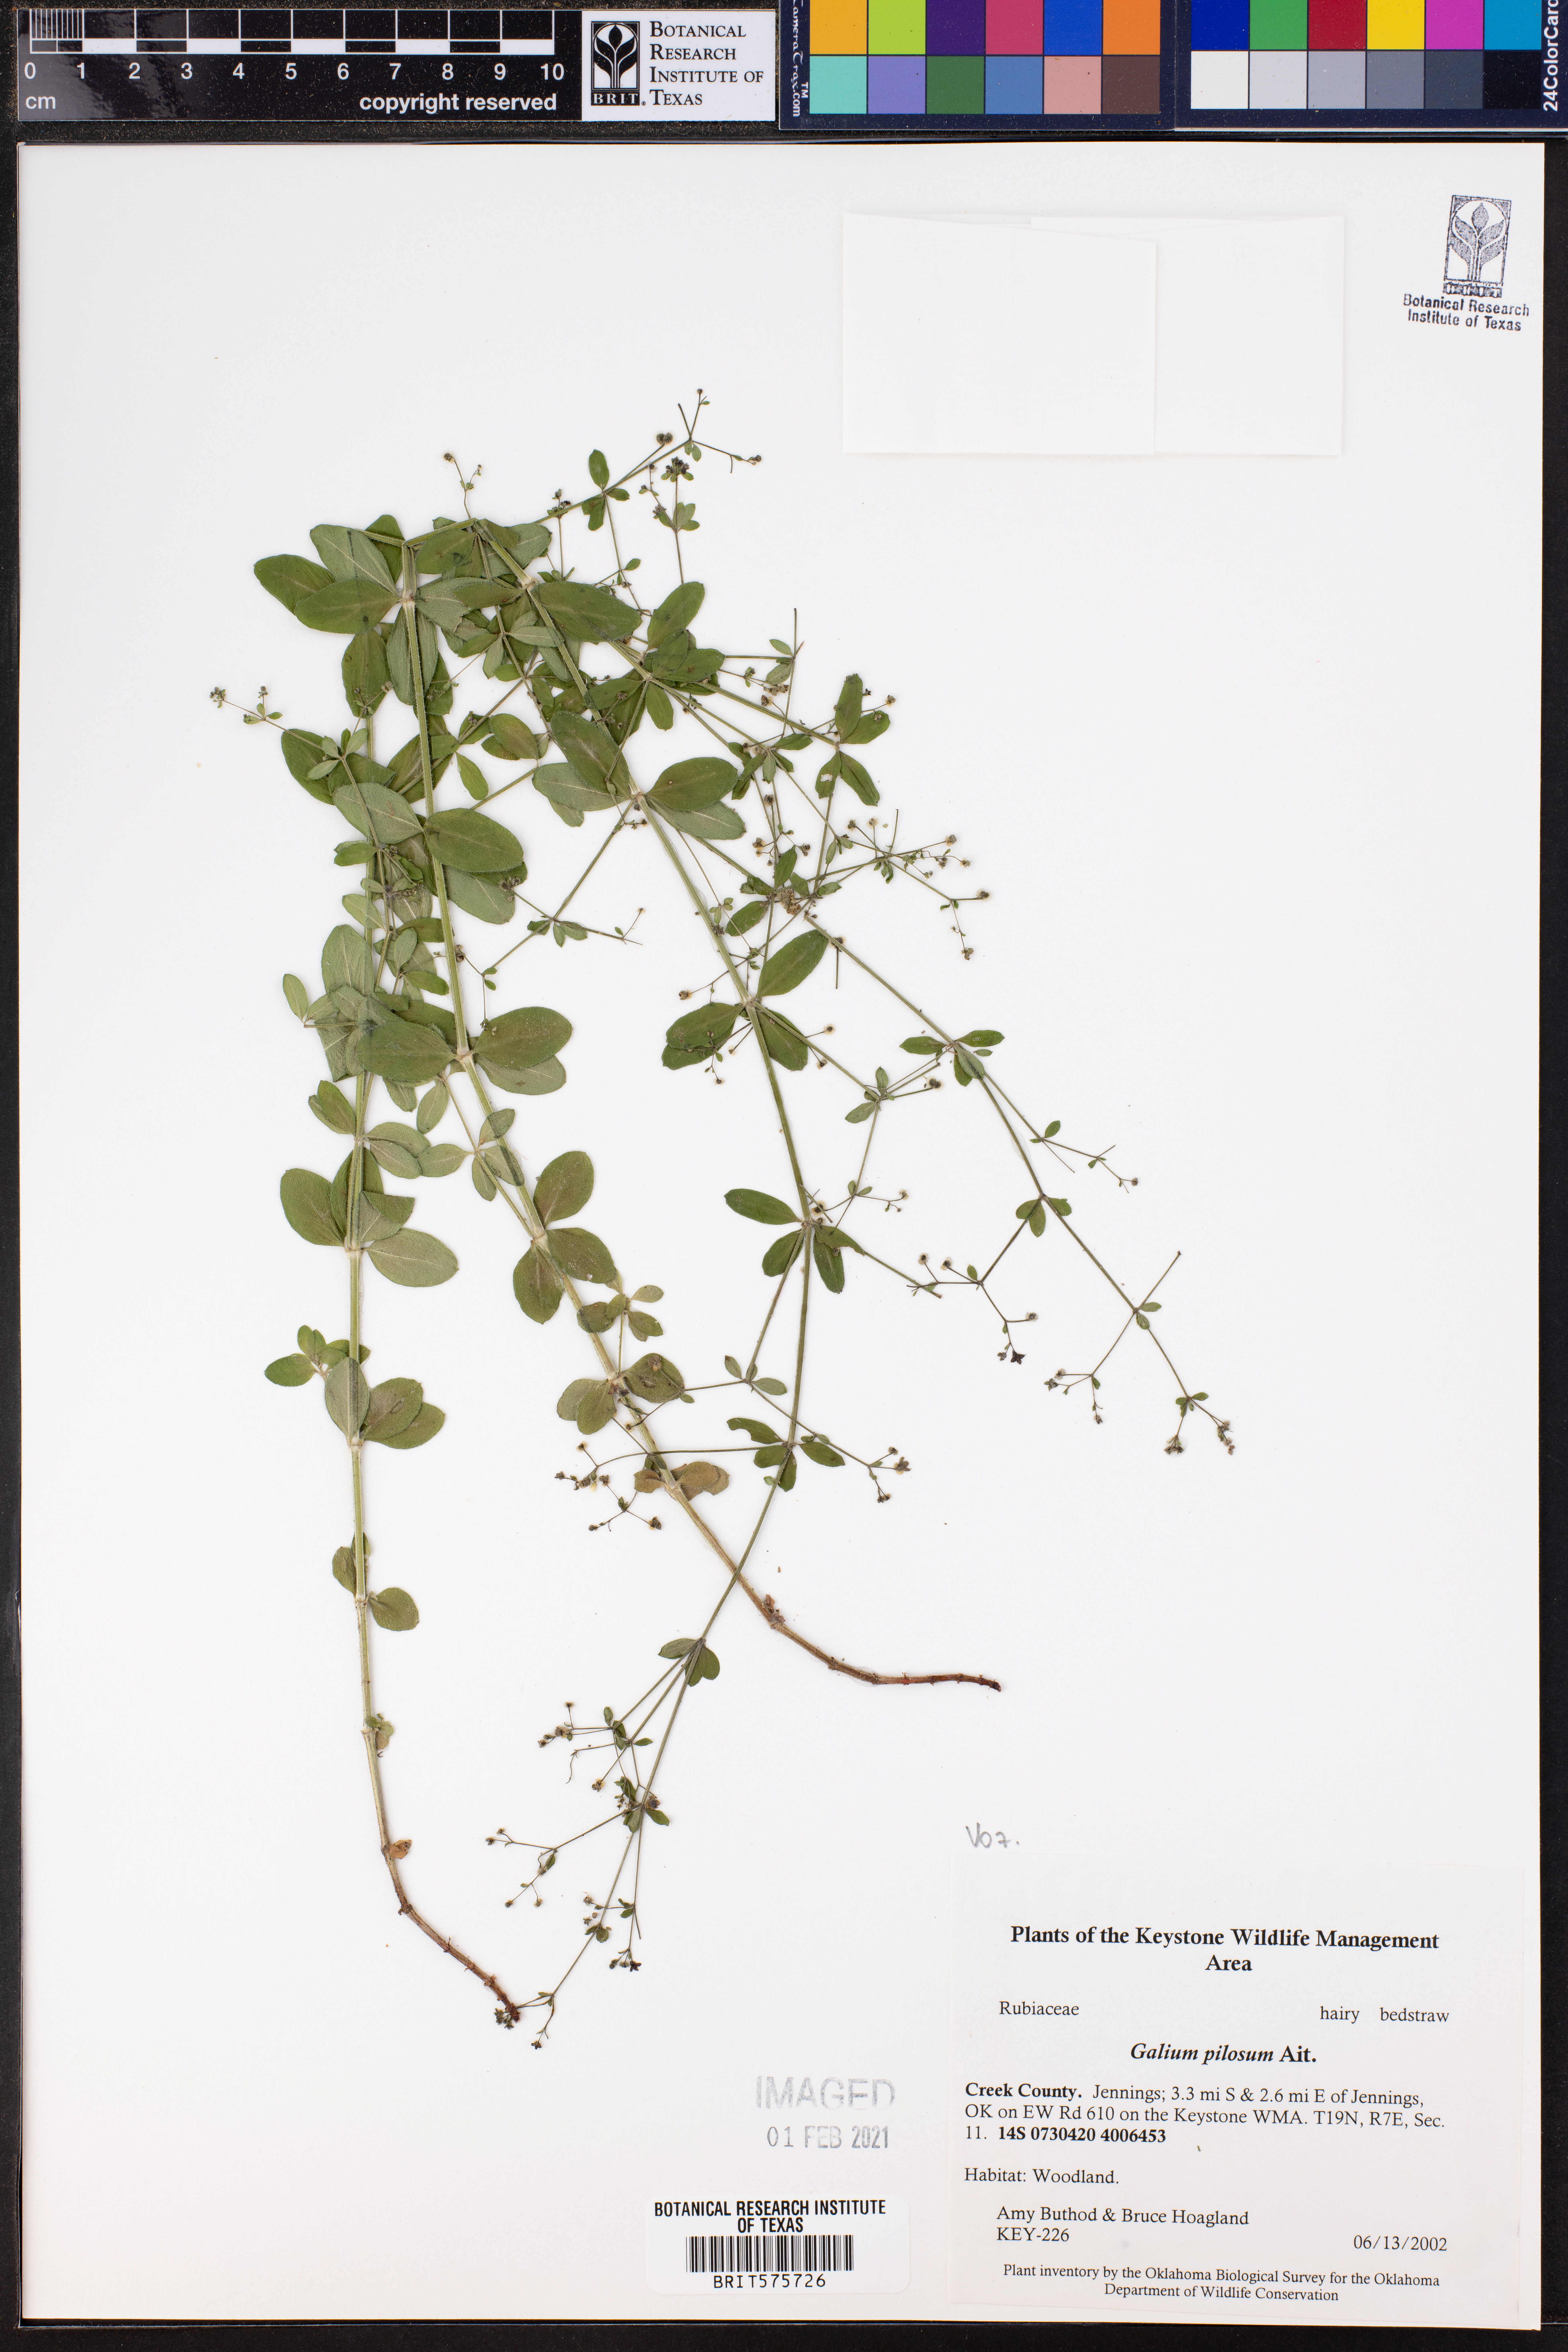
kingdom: Plantae
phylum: Tracheophyta
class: Magnoliopsida
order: Gentianales
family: Rubiaceae
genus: Galium
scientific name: Galium pilosum
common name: Hairy bedstraw
